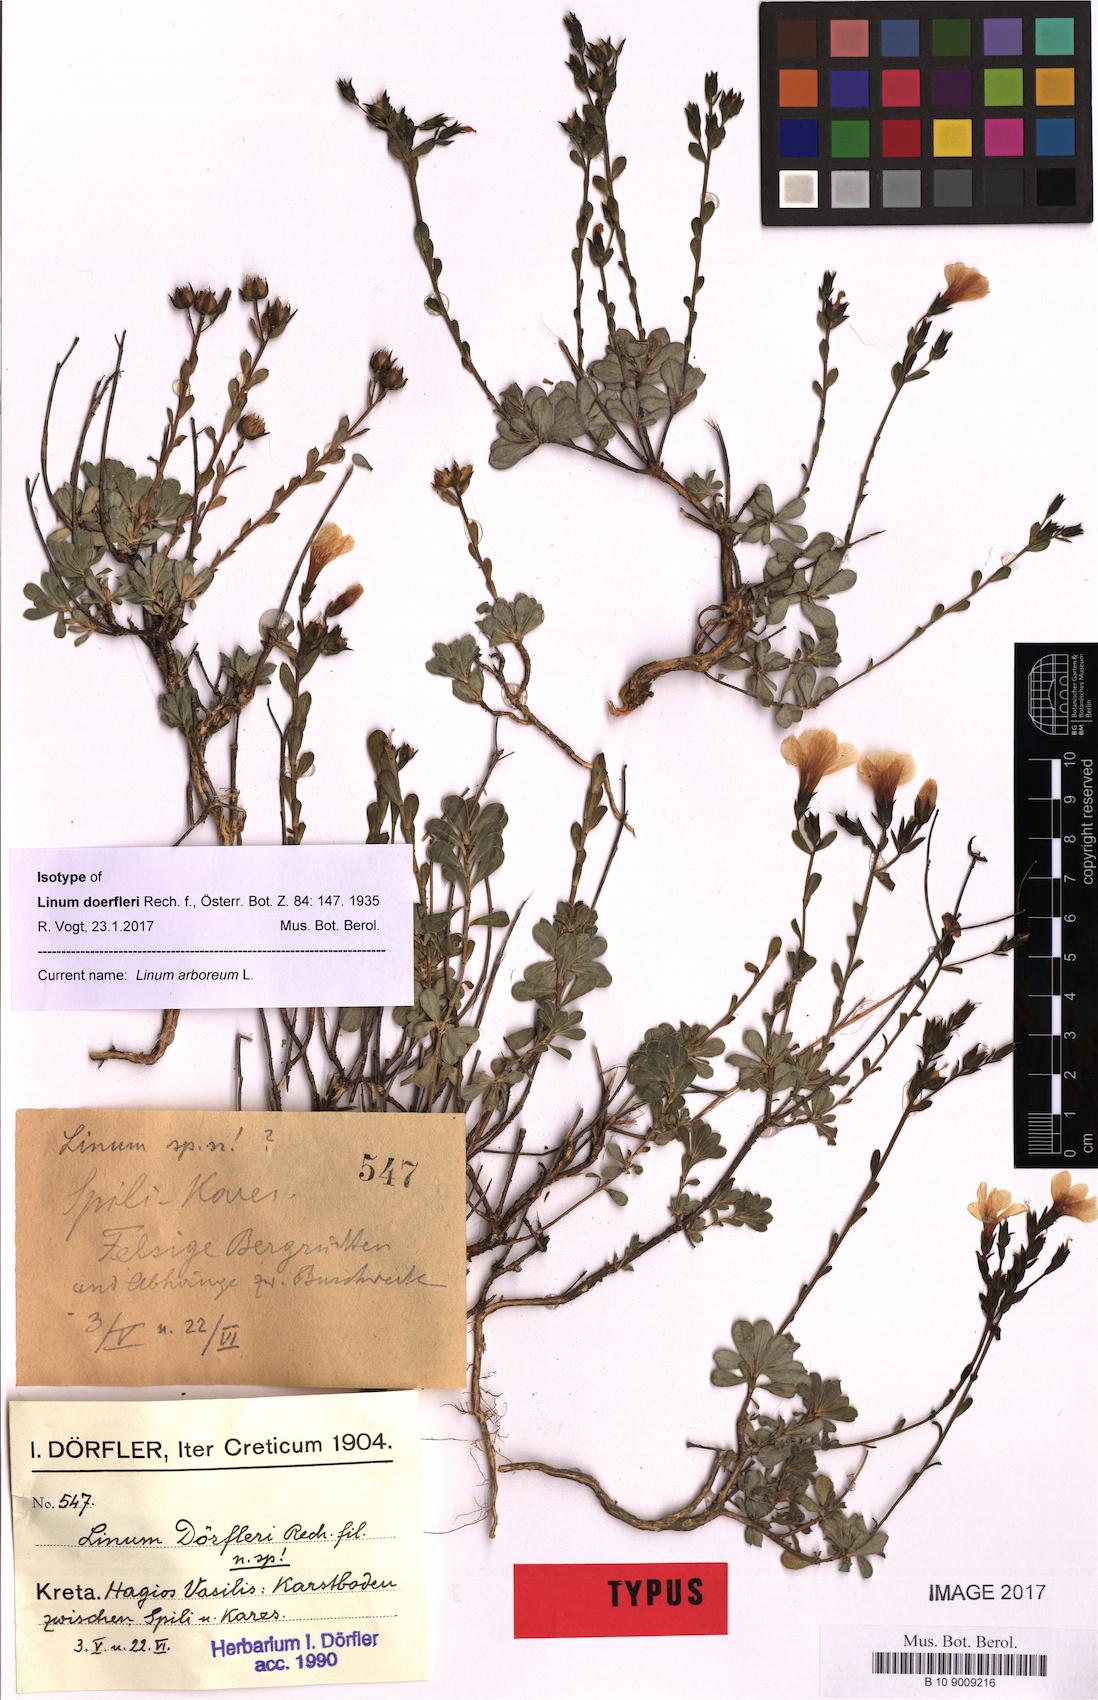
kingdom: Plantae
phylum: Tracheophyta
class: Magnoliopsida
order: Malpighiales
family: Linaceae
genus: Linum
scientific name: Linum arboreum
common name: Tree flax
